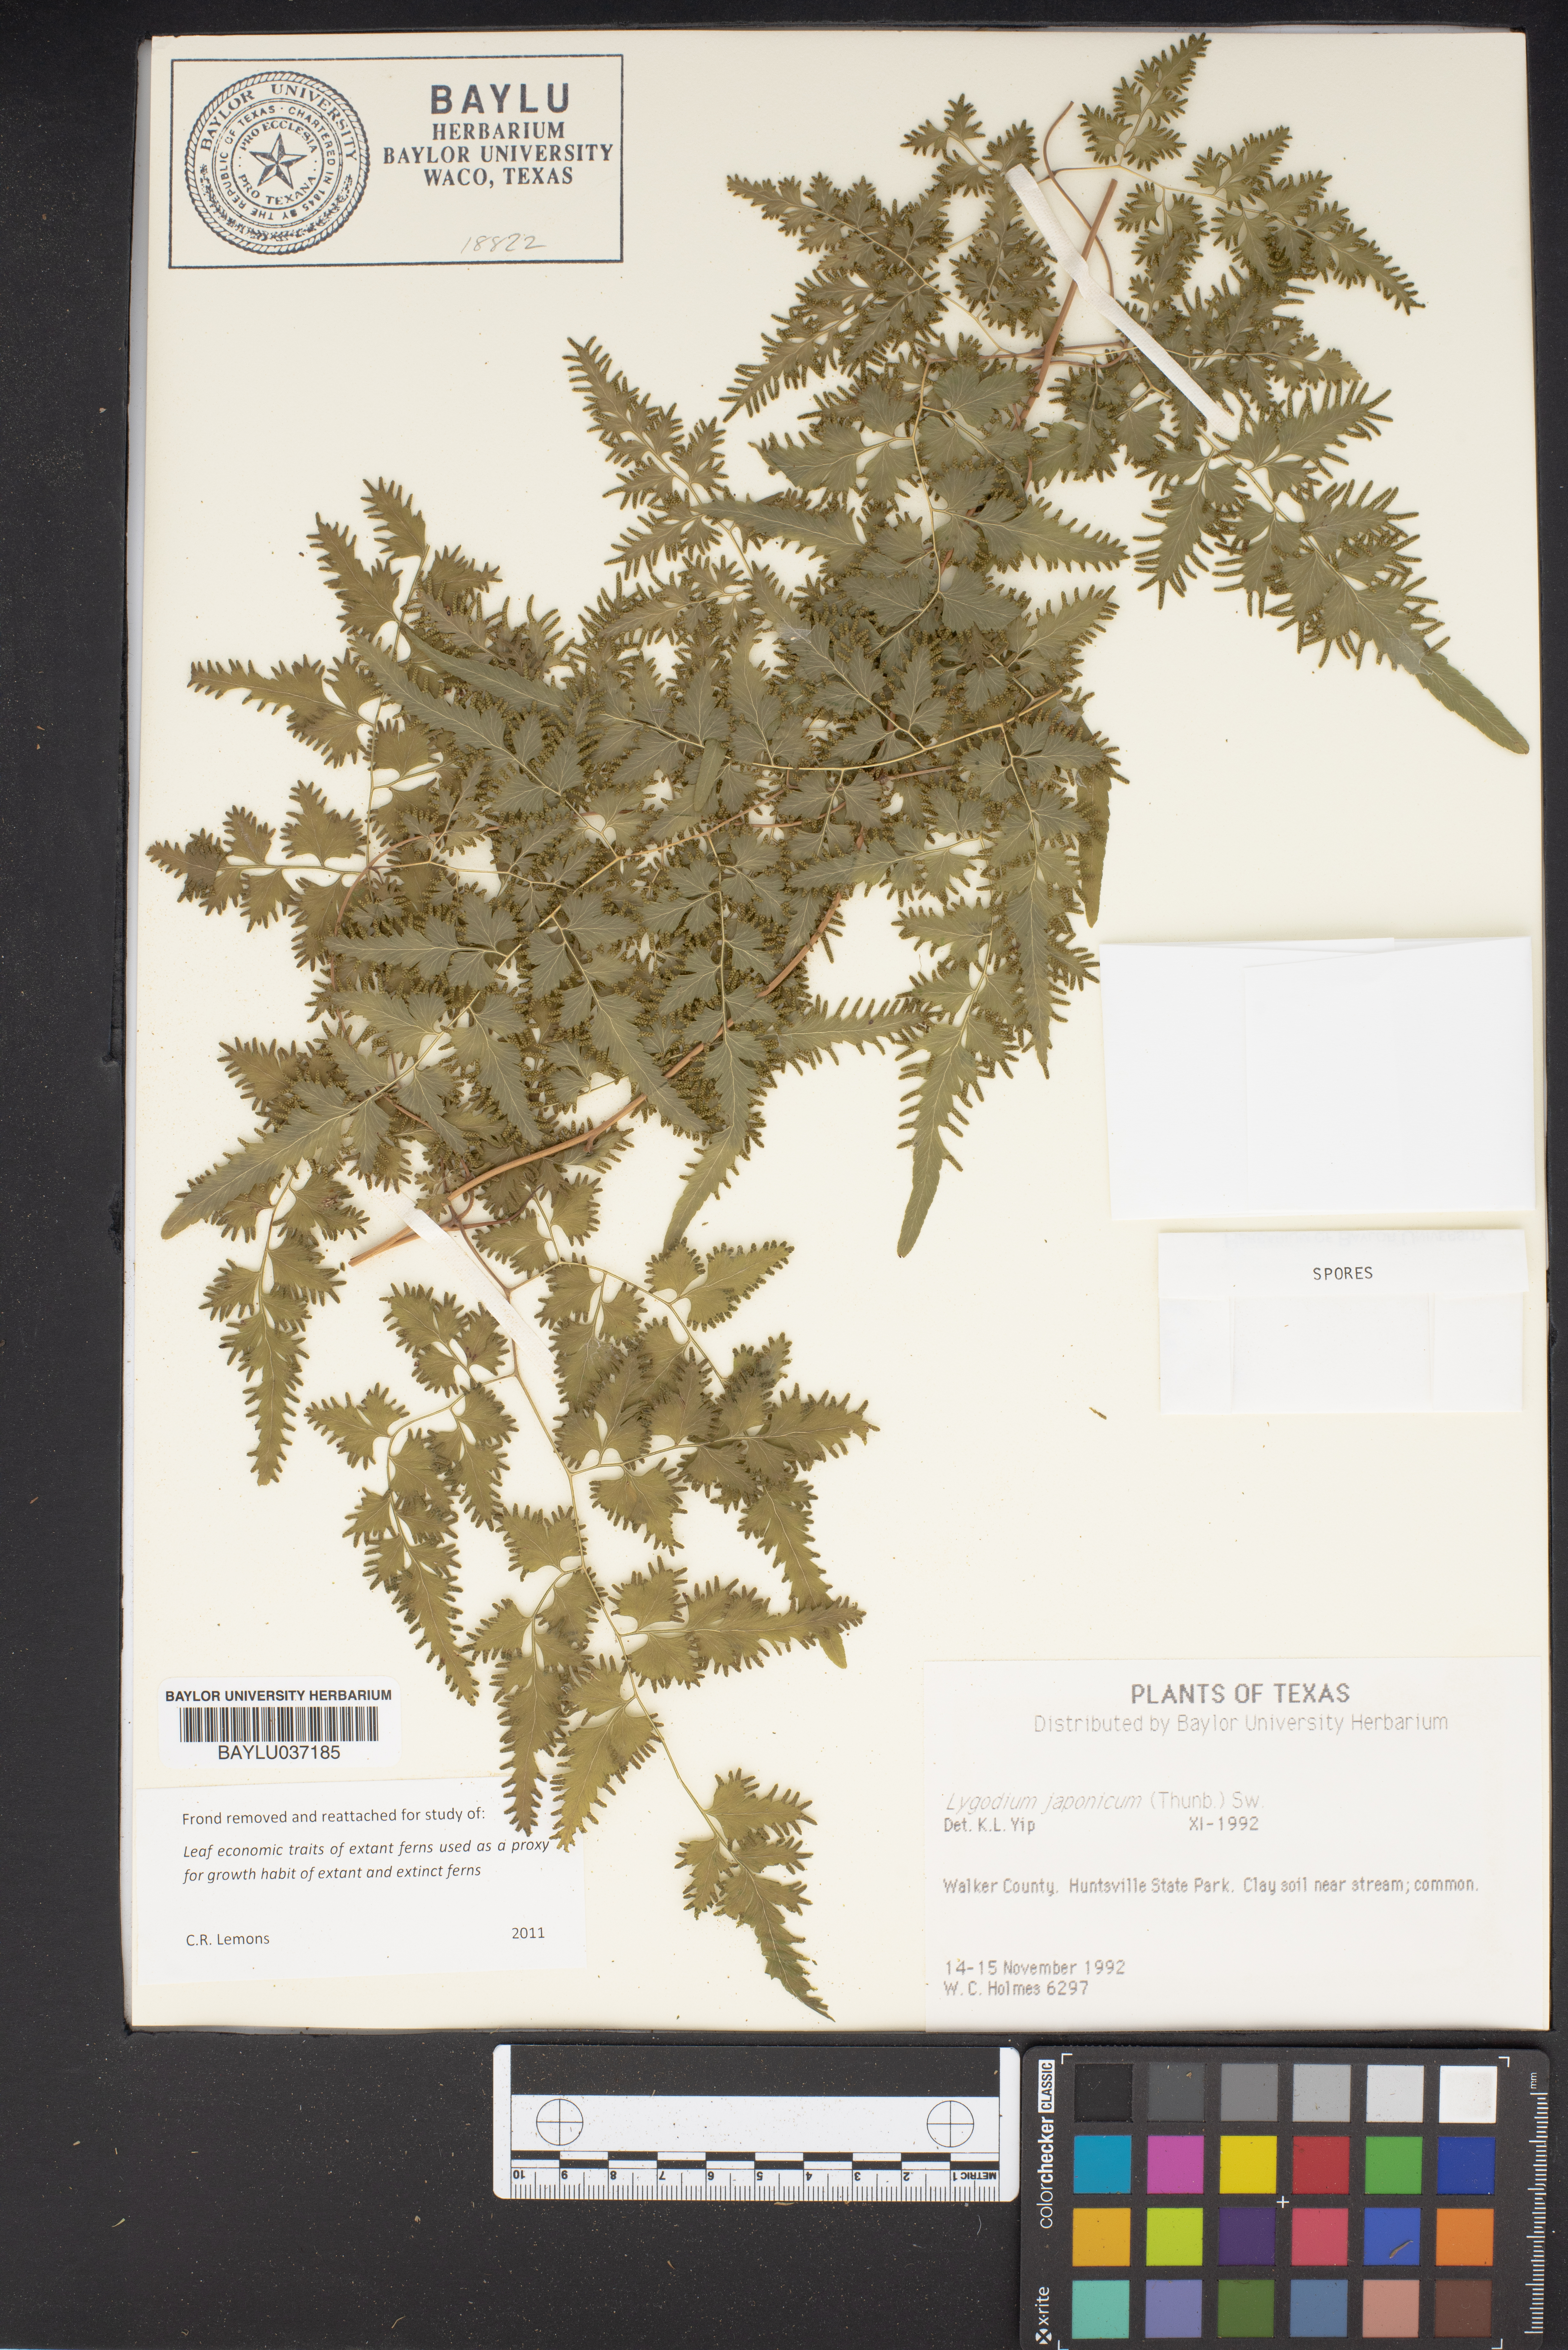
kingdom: Plantae
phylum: Tracheophyta
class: Polypodiopsida
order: Schizaeales
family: Lygodiaceae
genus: Lygodium
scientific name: Lygodium japonicum
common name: Japanese climbing fern
